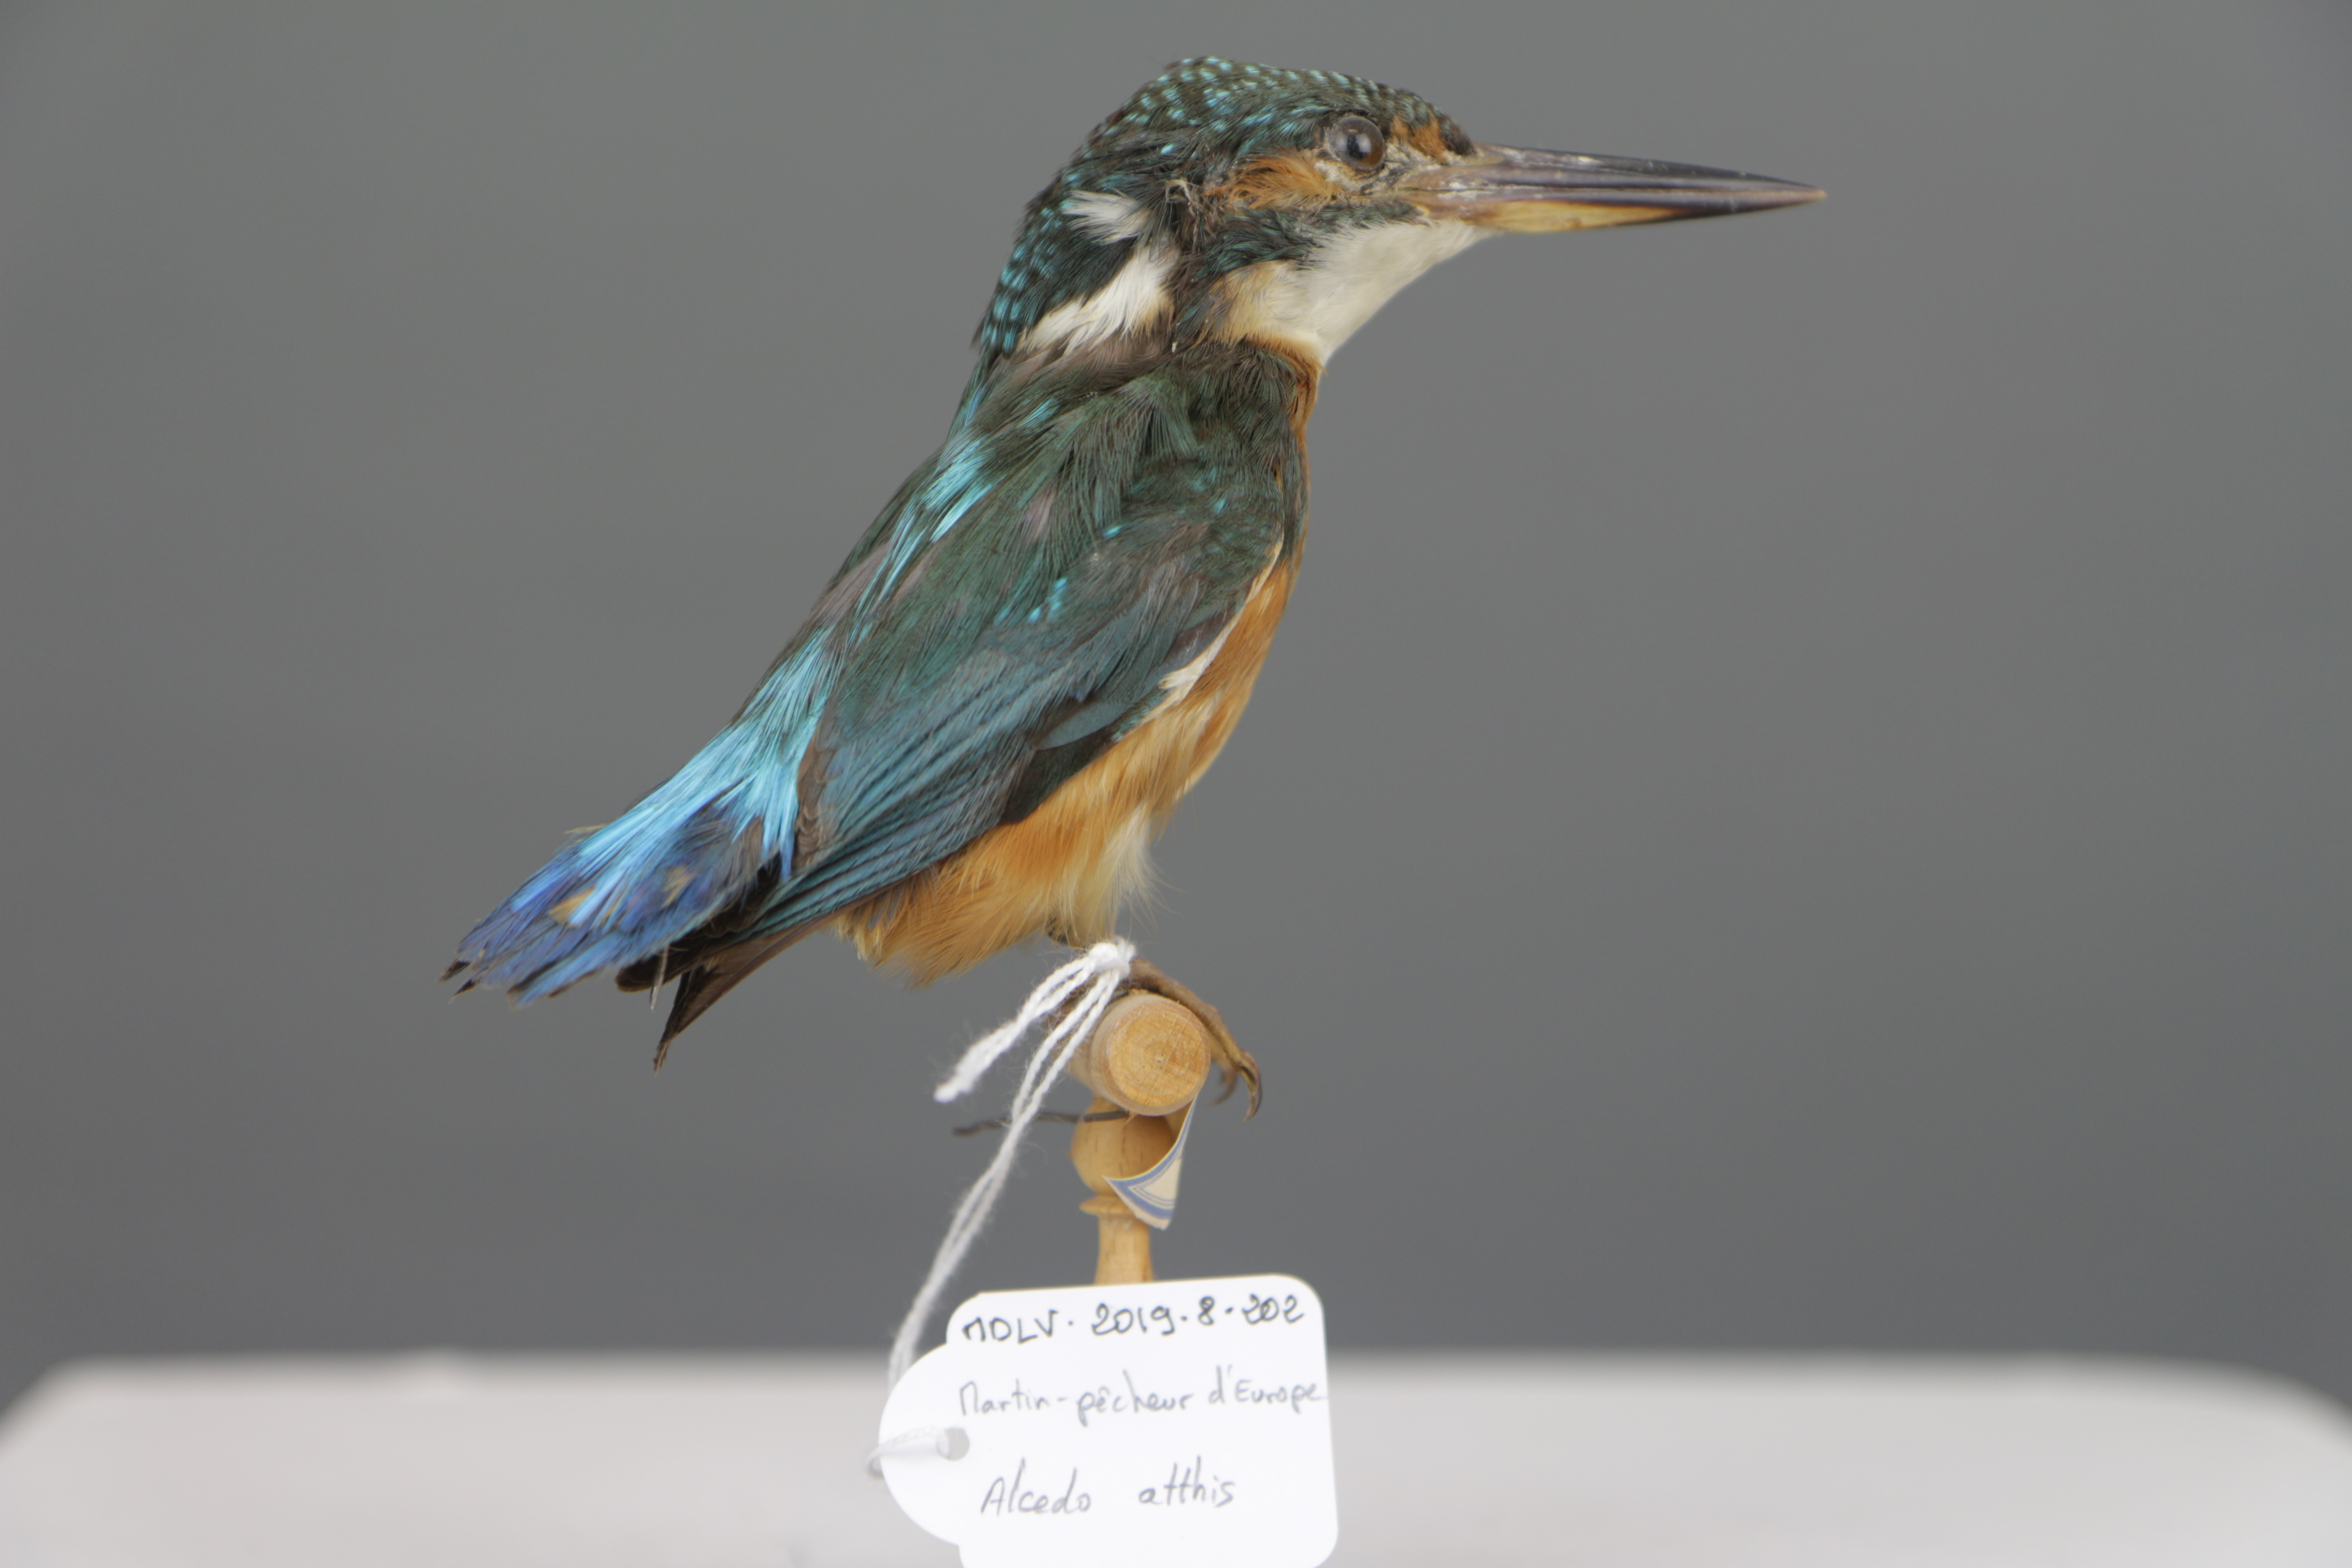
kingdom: Animalia
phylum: Chordata
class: Aves
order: Coraciiformes
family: Alcedinidae
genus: Alcedo
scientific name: Alcedo atthis
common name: Common kingfisher
